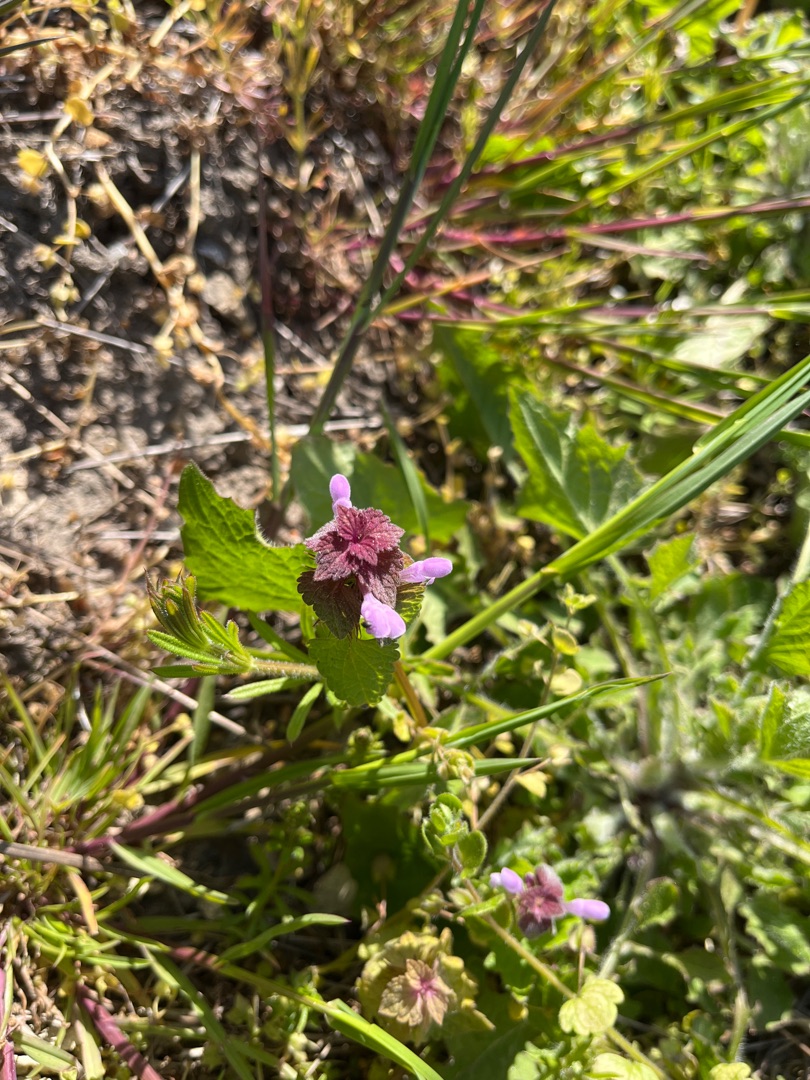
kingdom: Plantae
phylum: Tracheophyta
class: Magnoliopsida
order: Lamiales
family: Lamiaceae
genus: Lamium
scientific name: Lamium purpureum
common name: Rød tvetand
